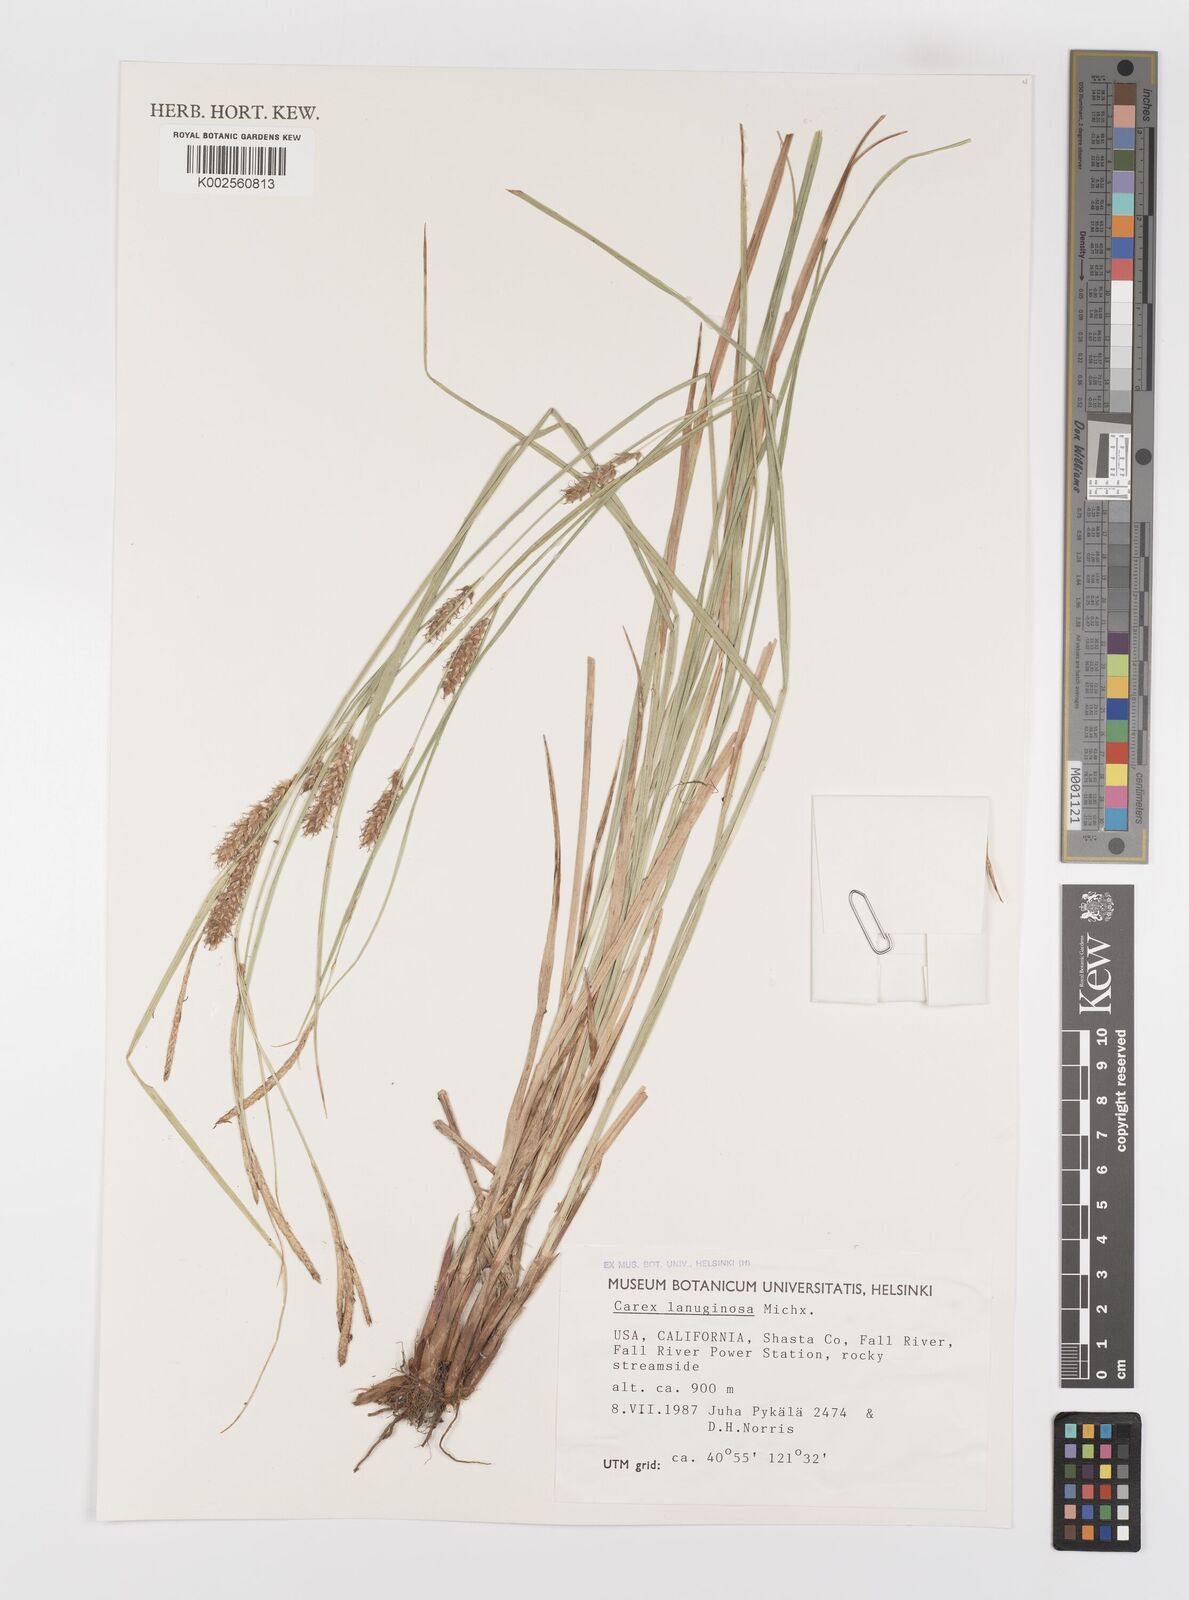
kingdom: Plantae
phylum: Tracheophyta
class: Liliopsida
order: Poales
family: Cyperaceae
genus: Carex
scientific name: Carex lasiocarpa
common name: Slender sedge
